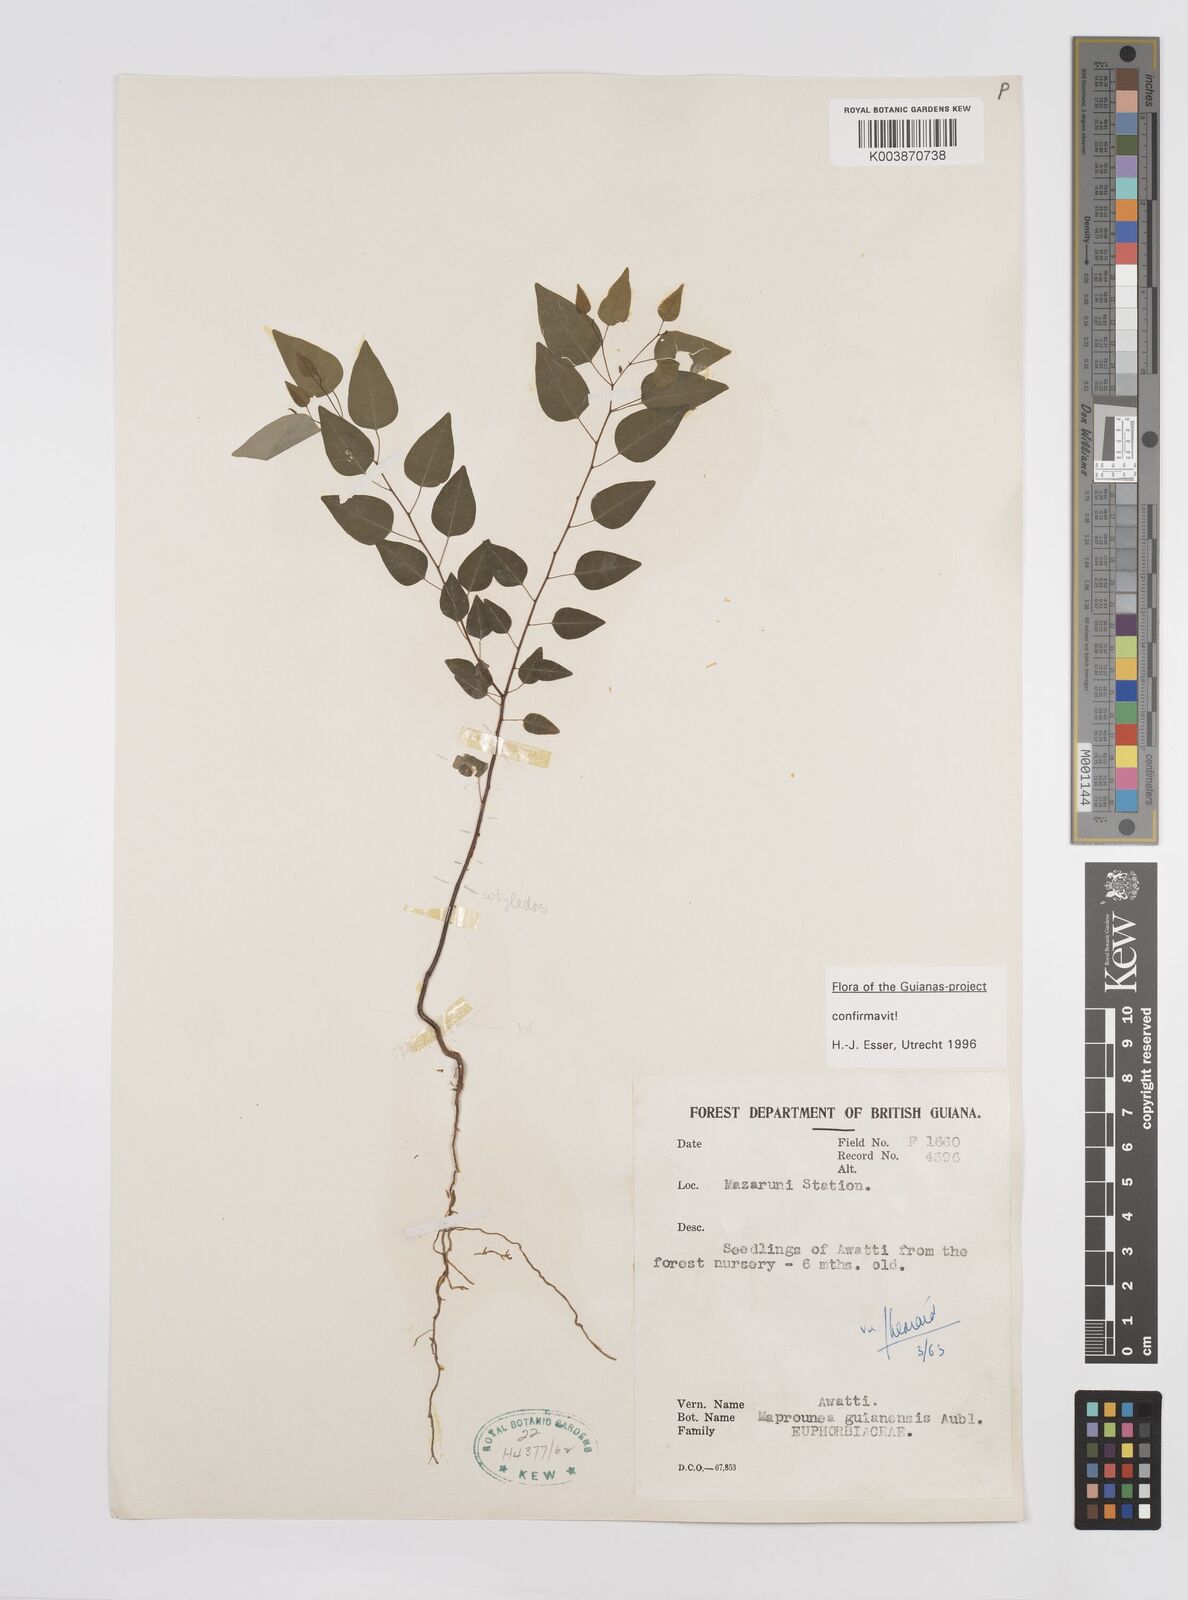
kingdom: Plantae
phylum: Tracheophyta
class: Magnoliopsida
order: Malpighiales
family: Euphorbiaceae
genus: Maprounea
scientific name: Maprounea guianensis
